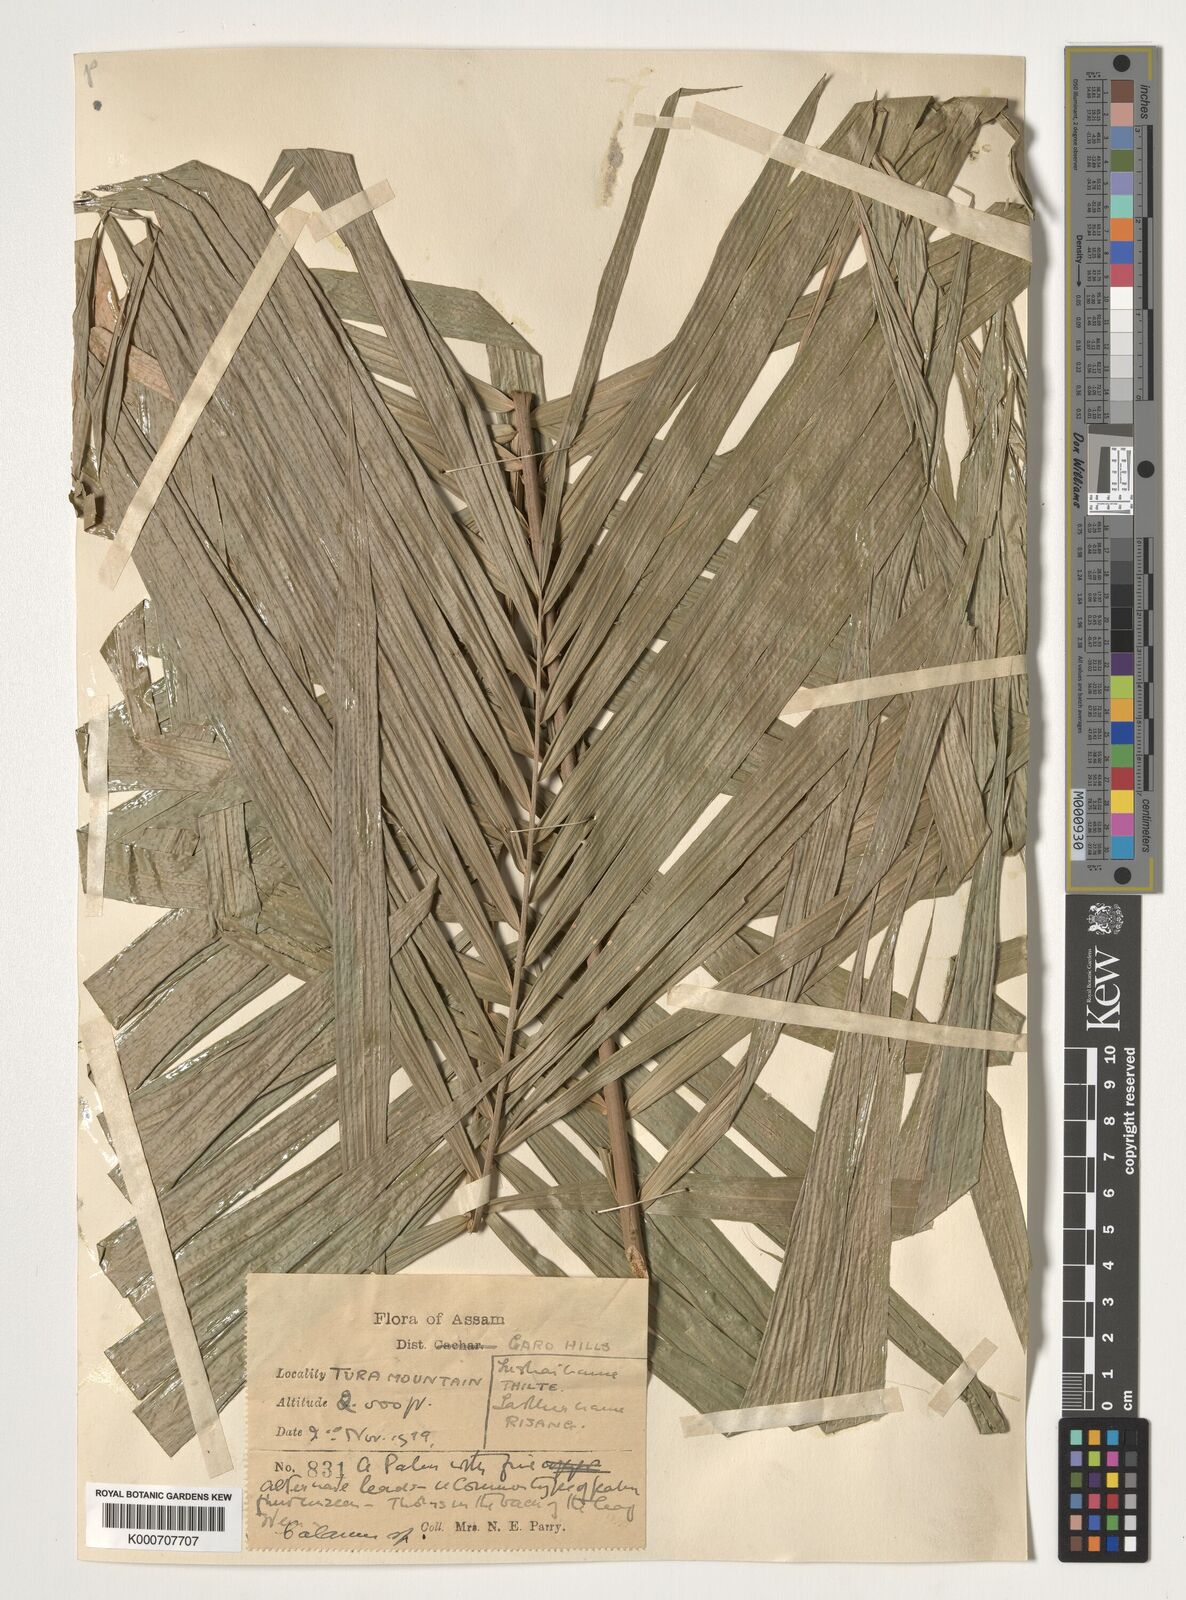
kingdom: Plantae
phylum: Tracheophyta
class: Liliopsida
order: Arecales
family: Arecaceae
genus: Calamus
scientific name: Calamus
